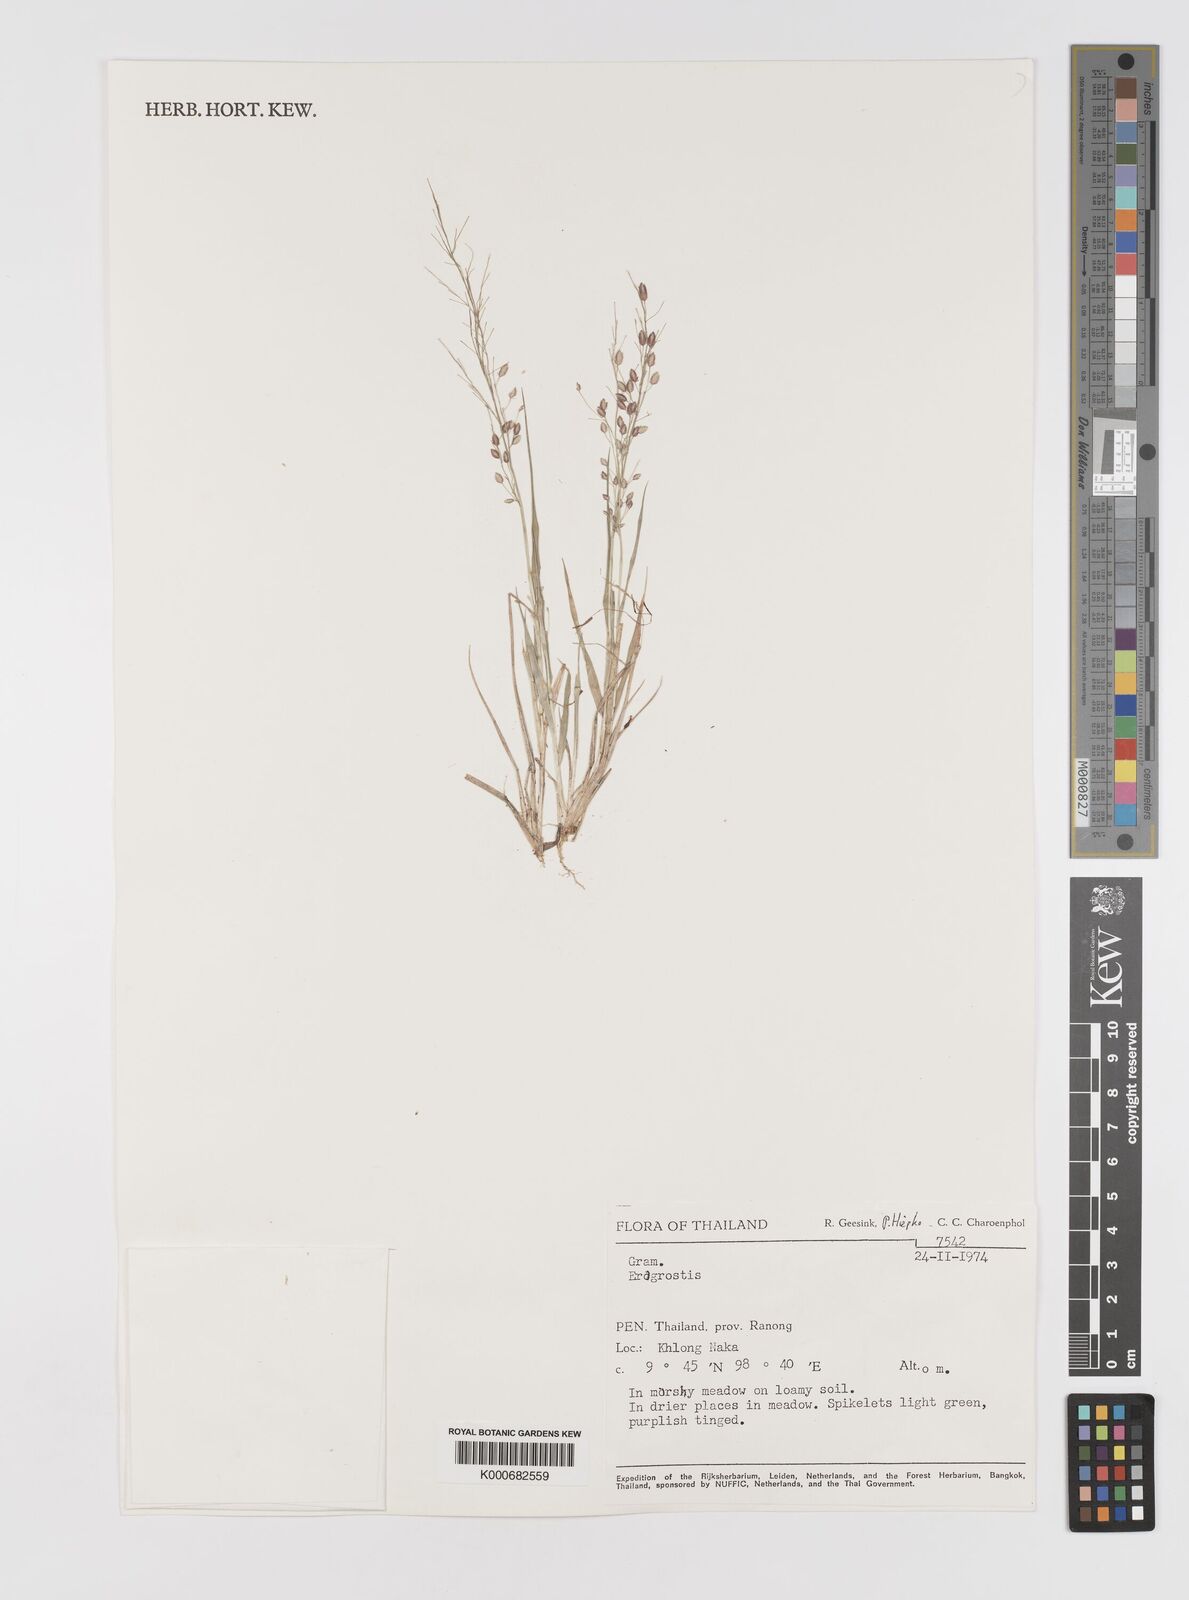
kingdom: Plantae
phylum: Tracheophyta
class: Liliopsida
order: Poales
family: Poaceae
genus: Eragrostis
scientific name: Eragrostis unioloides
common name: Chinese lovegrass
